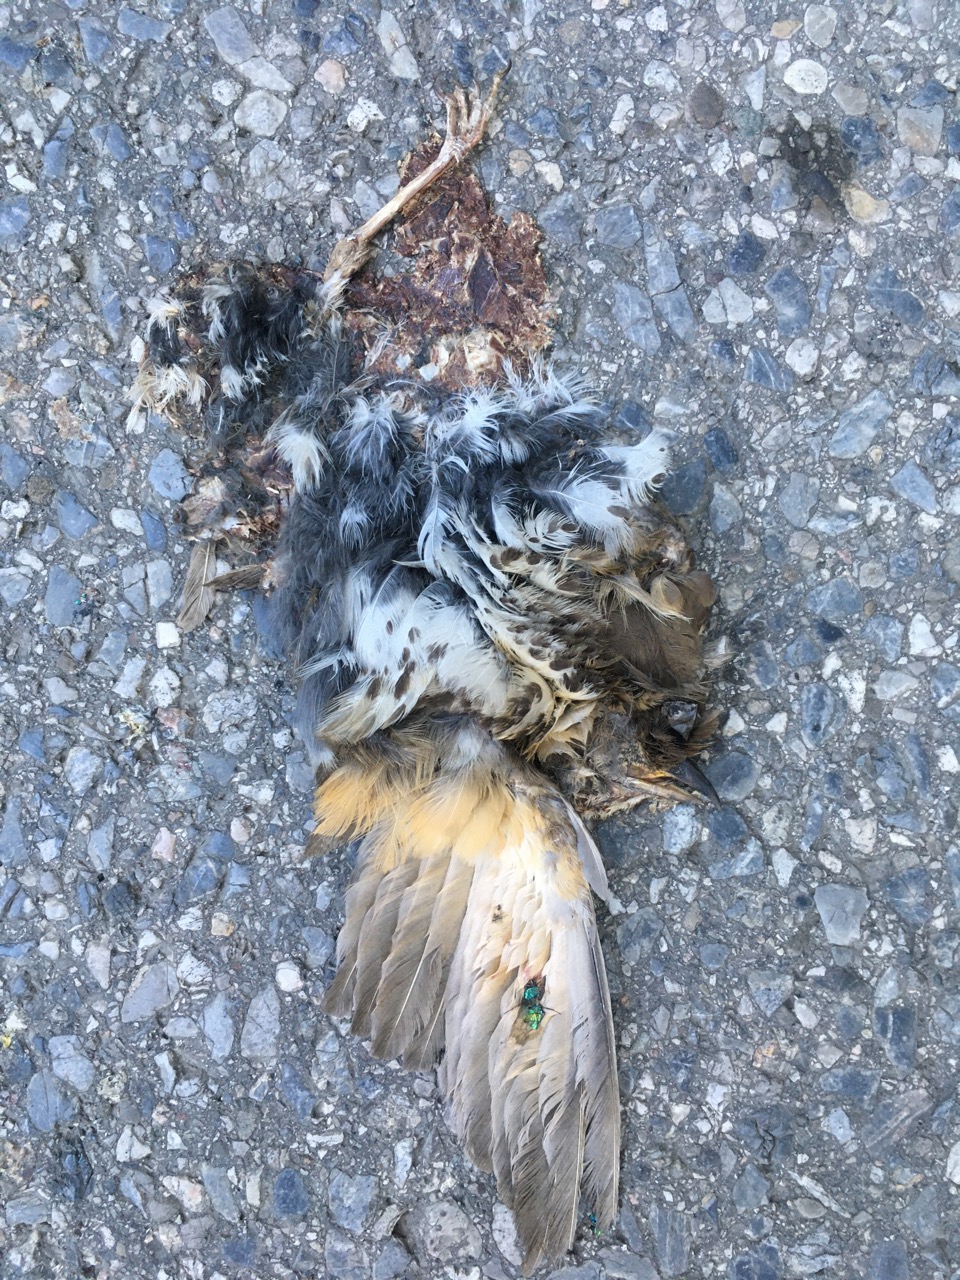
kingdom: Animalia
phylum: Chordata
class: Aves
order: Passeriformes
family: Turdidae
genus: Turdus
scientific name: Turdus merula
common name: Common blackbird
